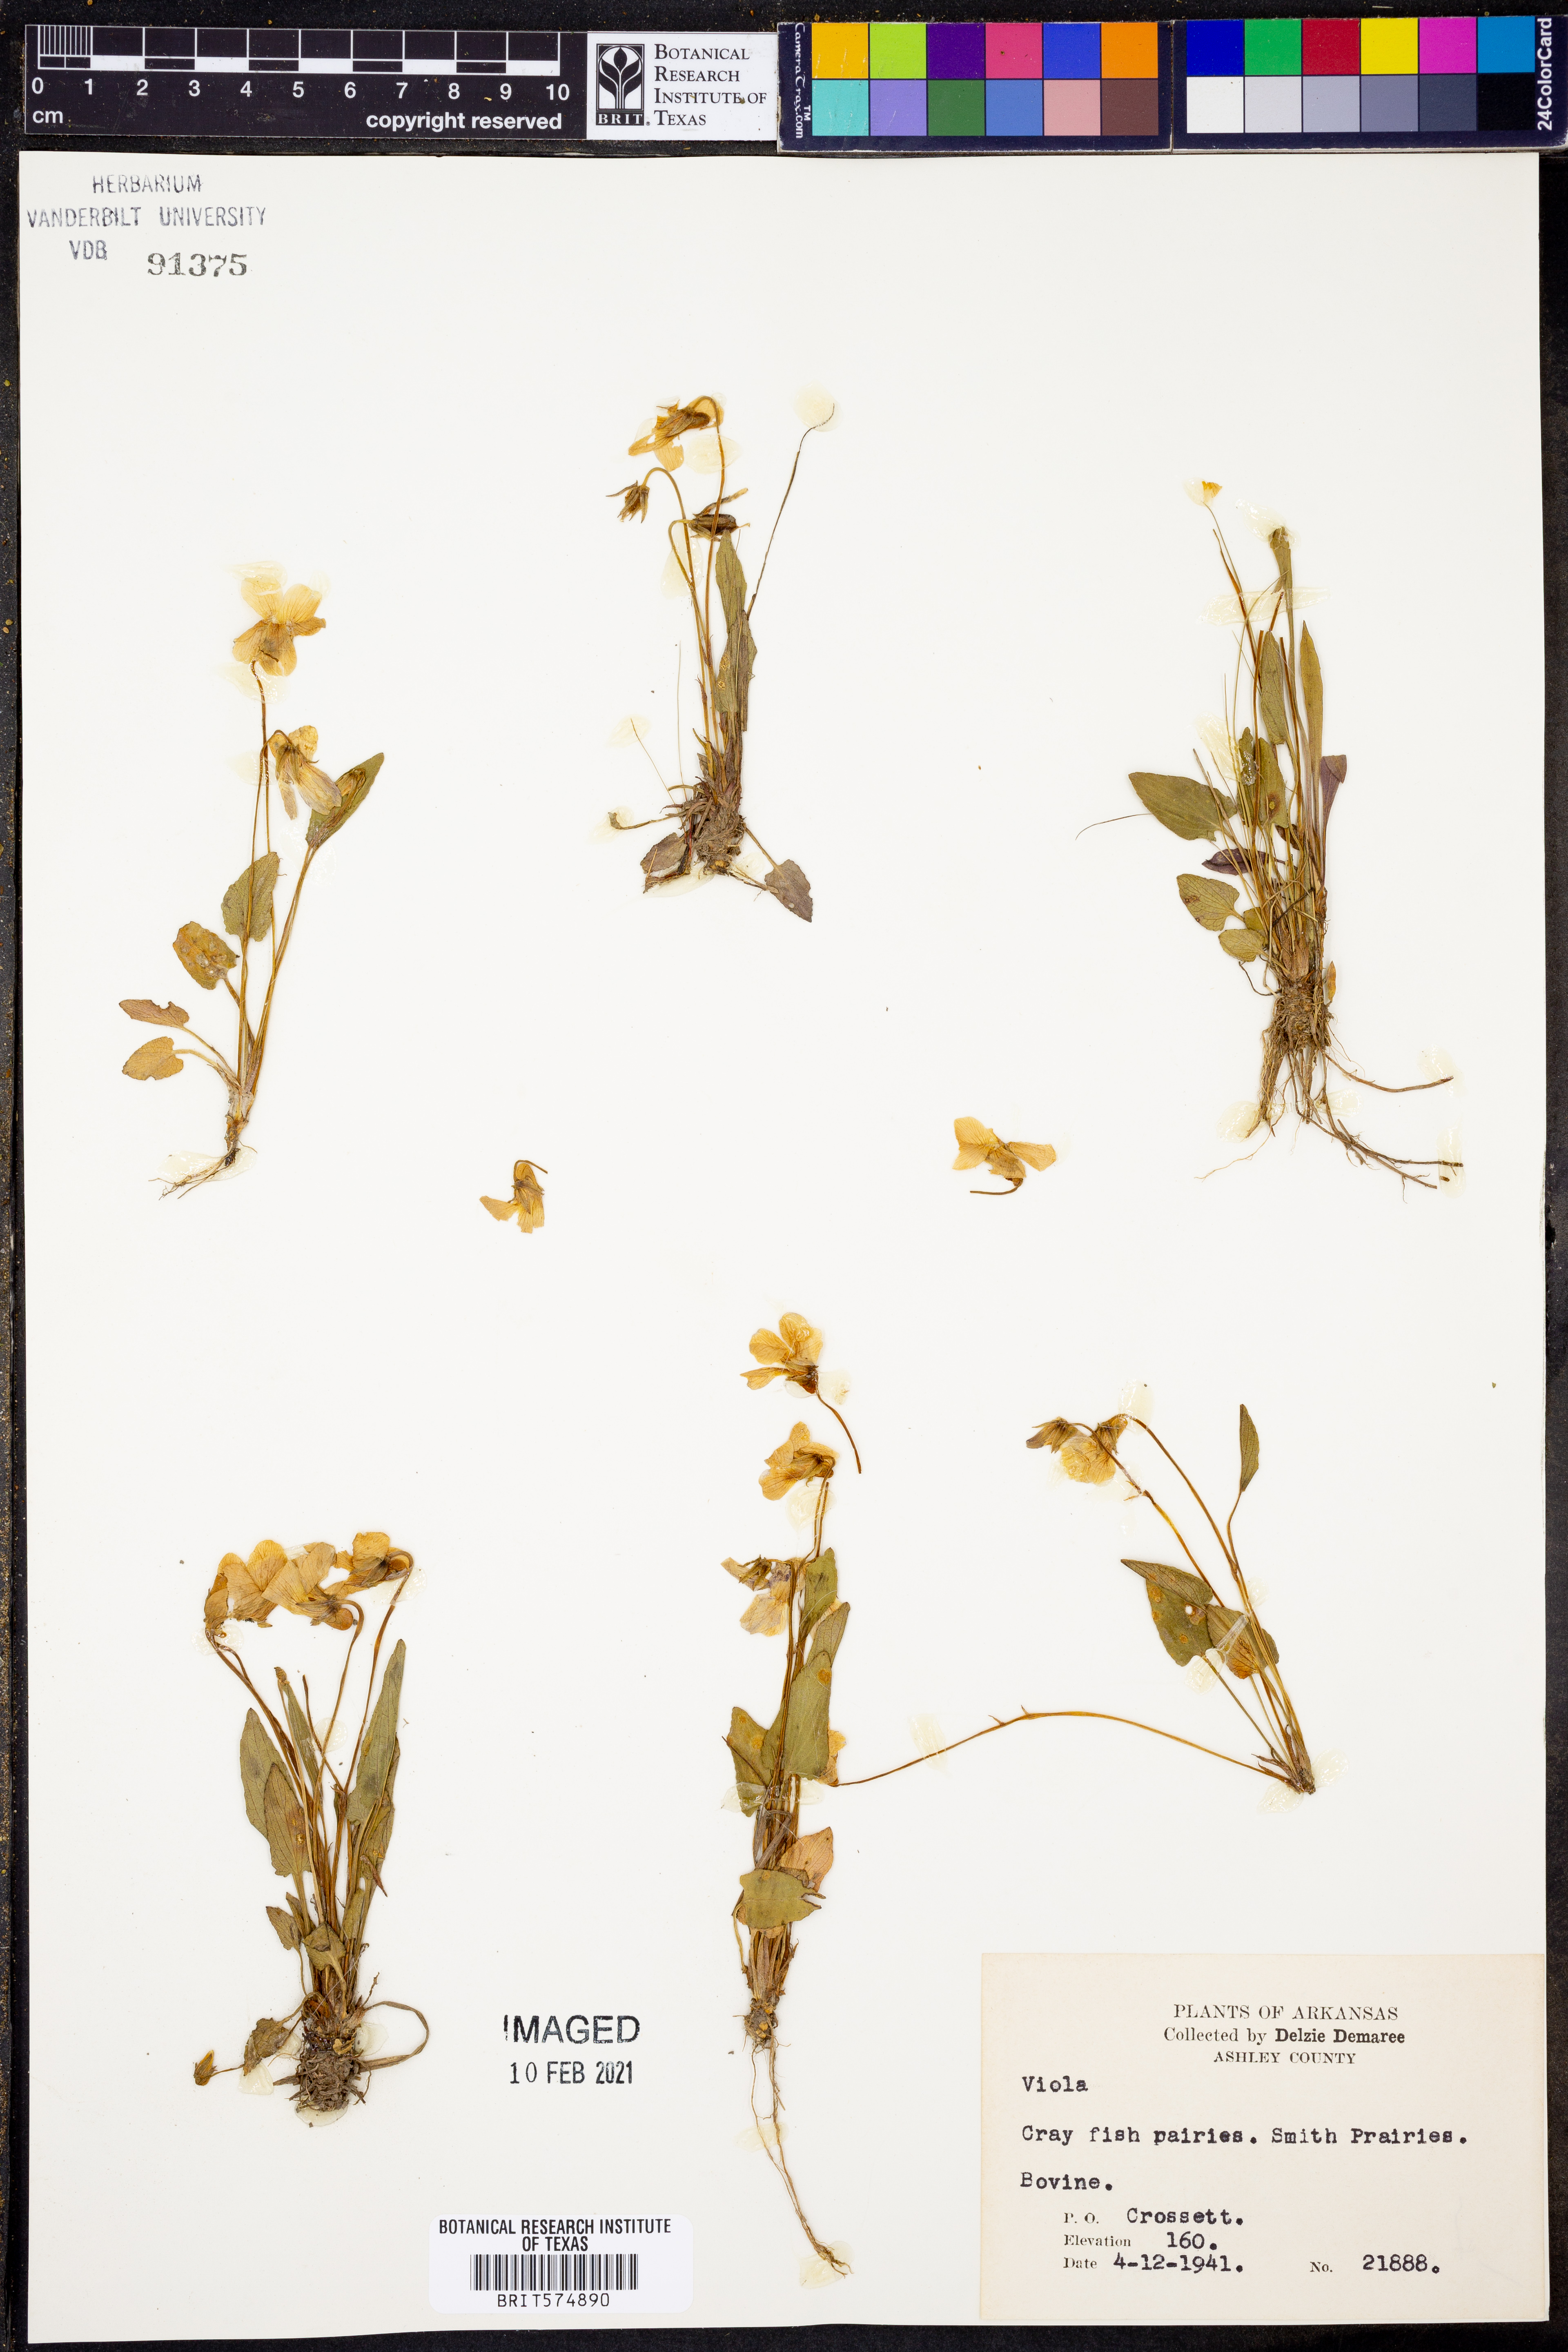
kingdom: Plantae
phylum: Tracheophyta
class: Magnoliopsida
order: Malpighiales
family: Violaceae
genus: Viola
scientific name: Viola
